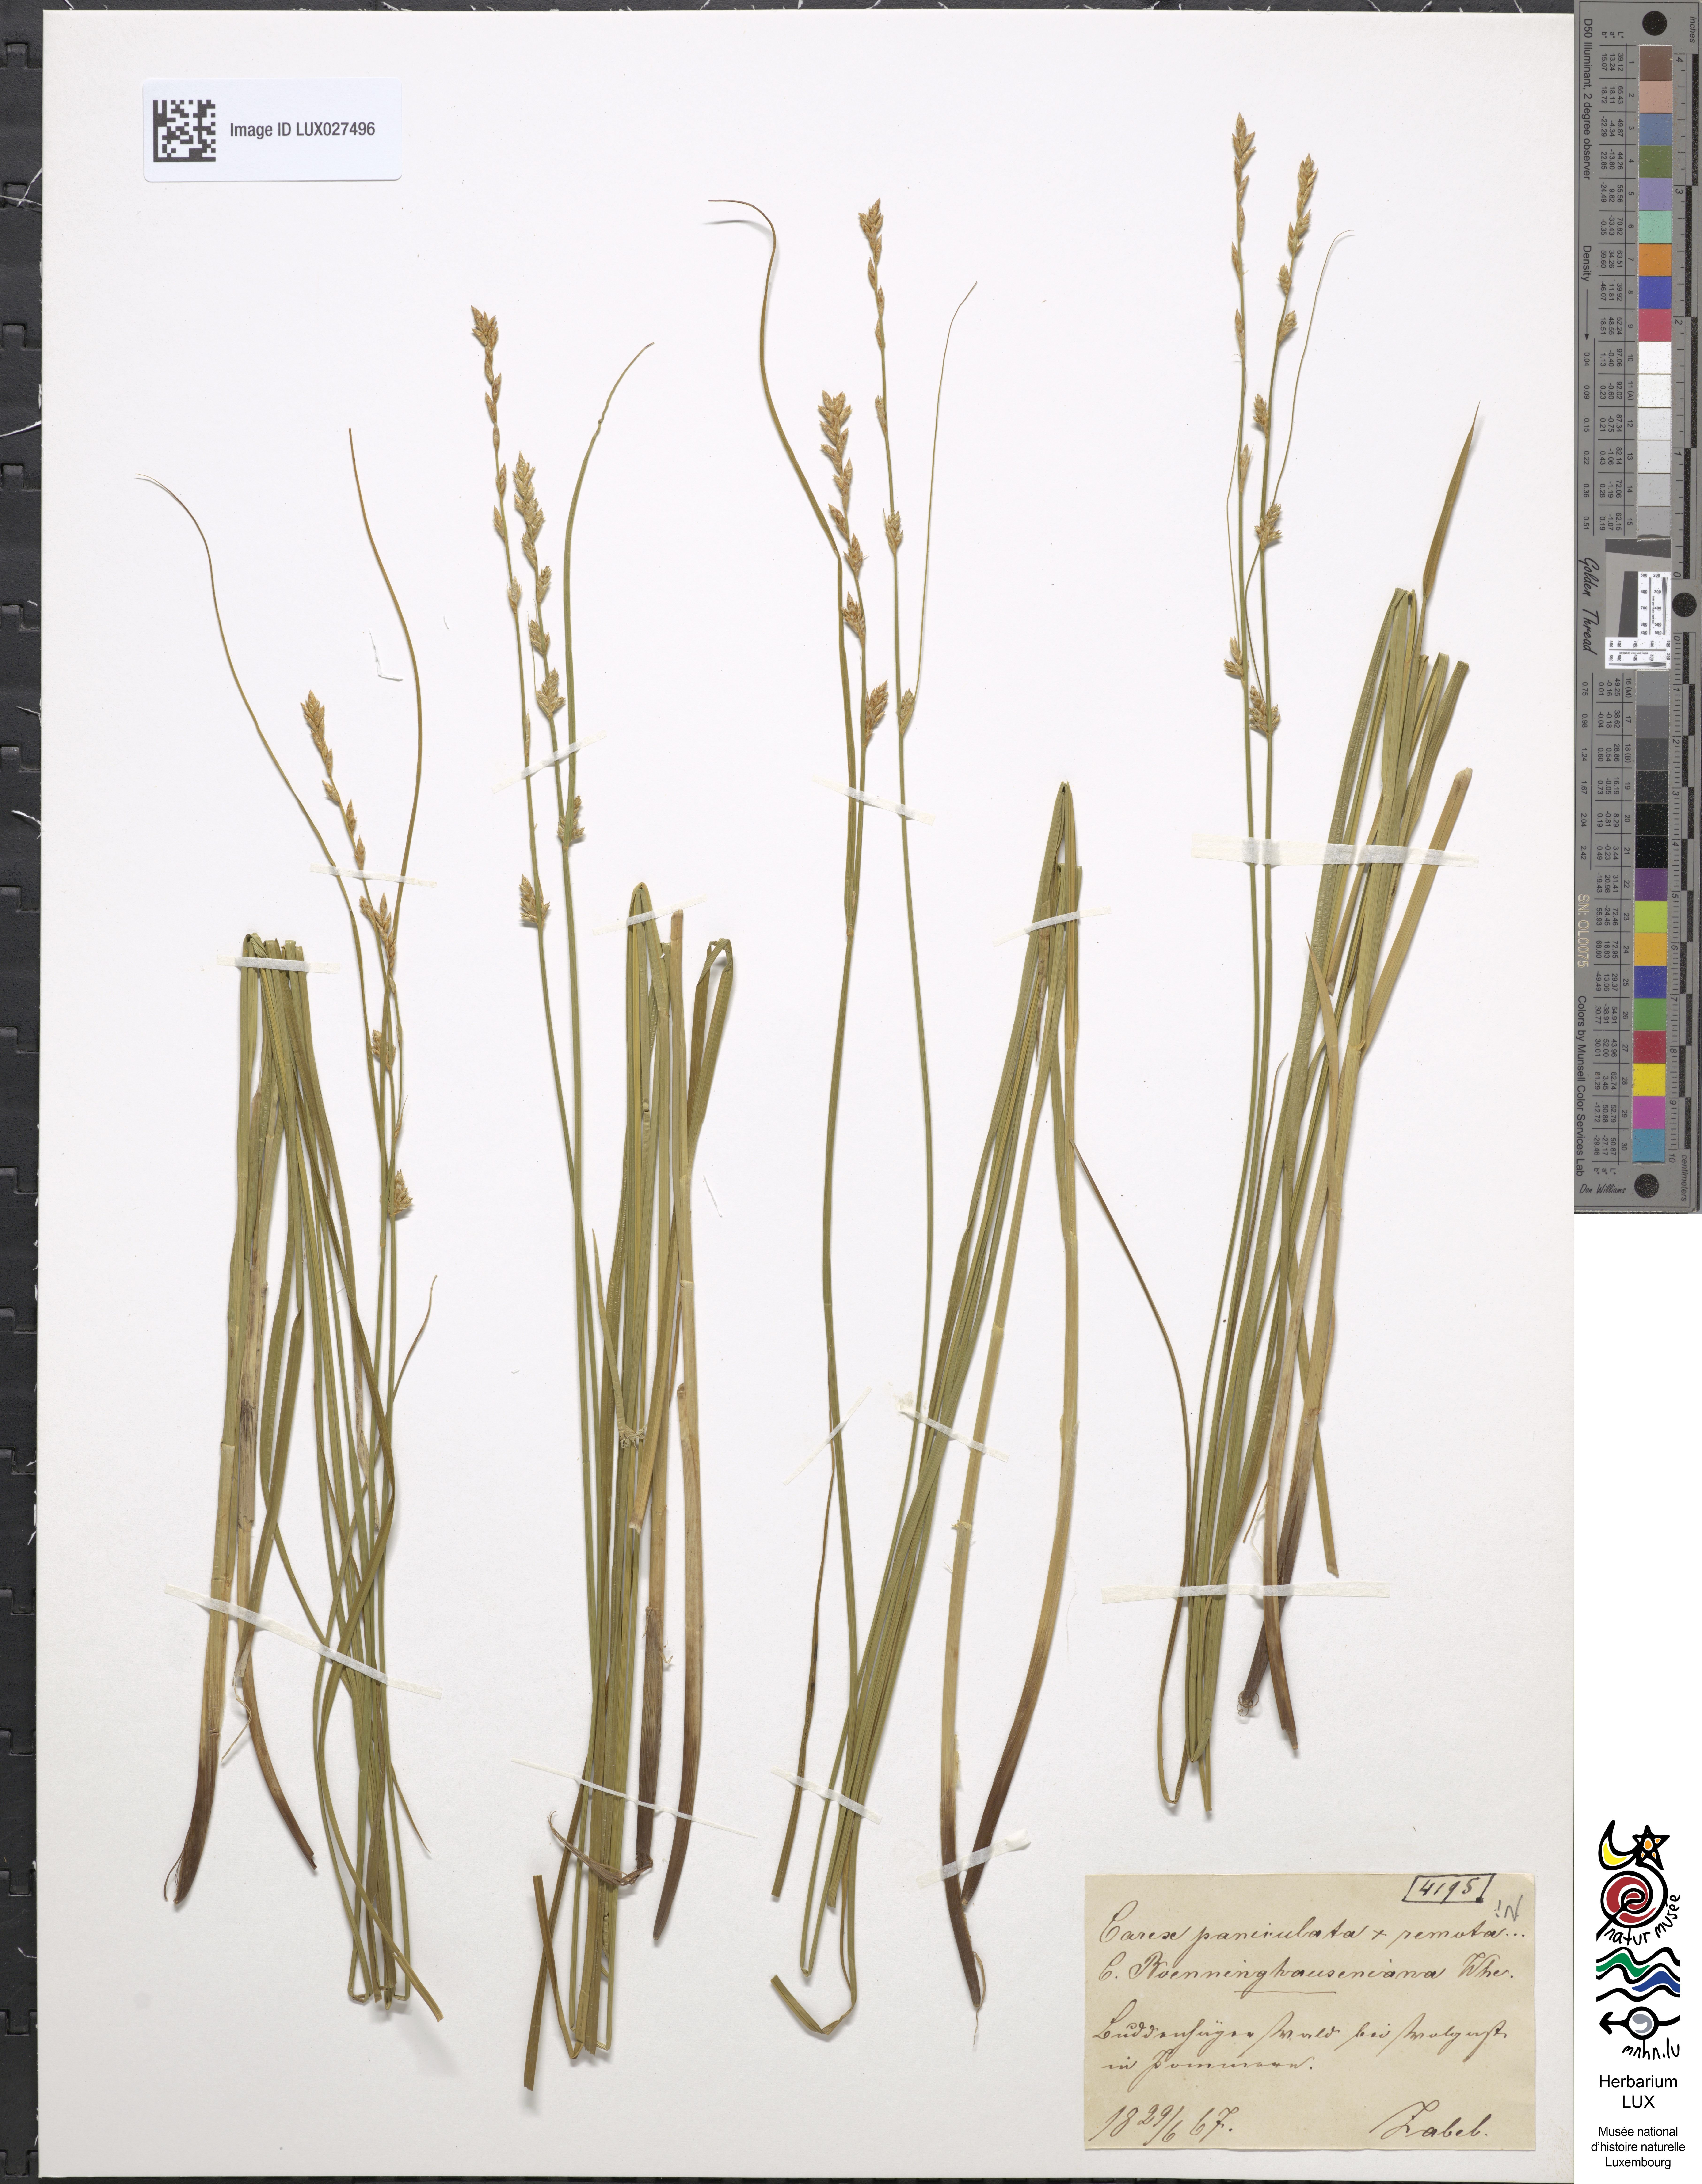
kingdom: Plantae
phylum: Tracheophyta
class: Liliopsida
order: Poales
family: Cyperaceae
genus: Carex
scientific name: Carex boenninghausiana
